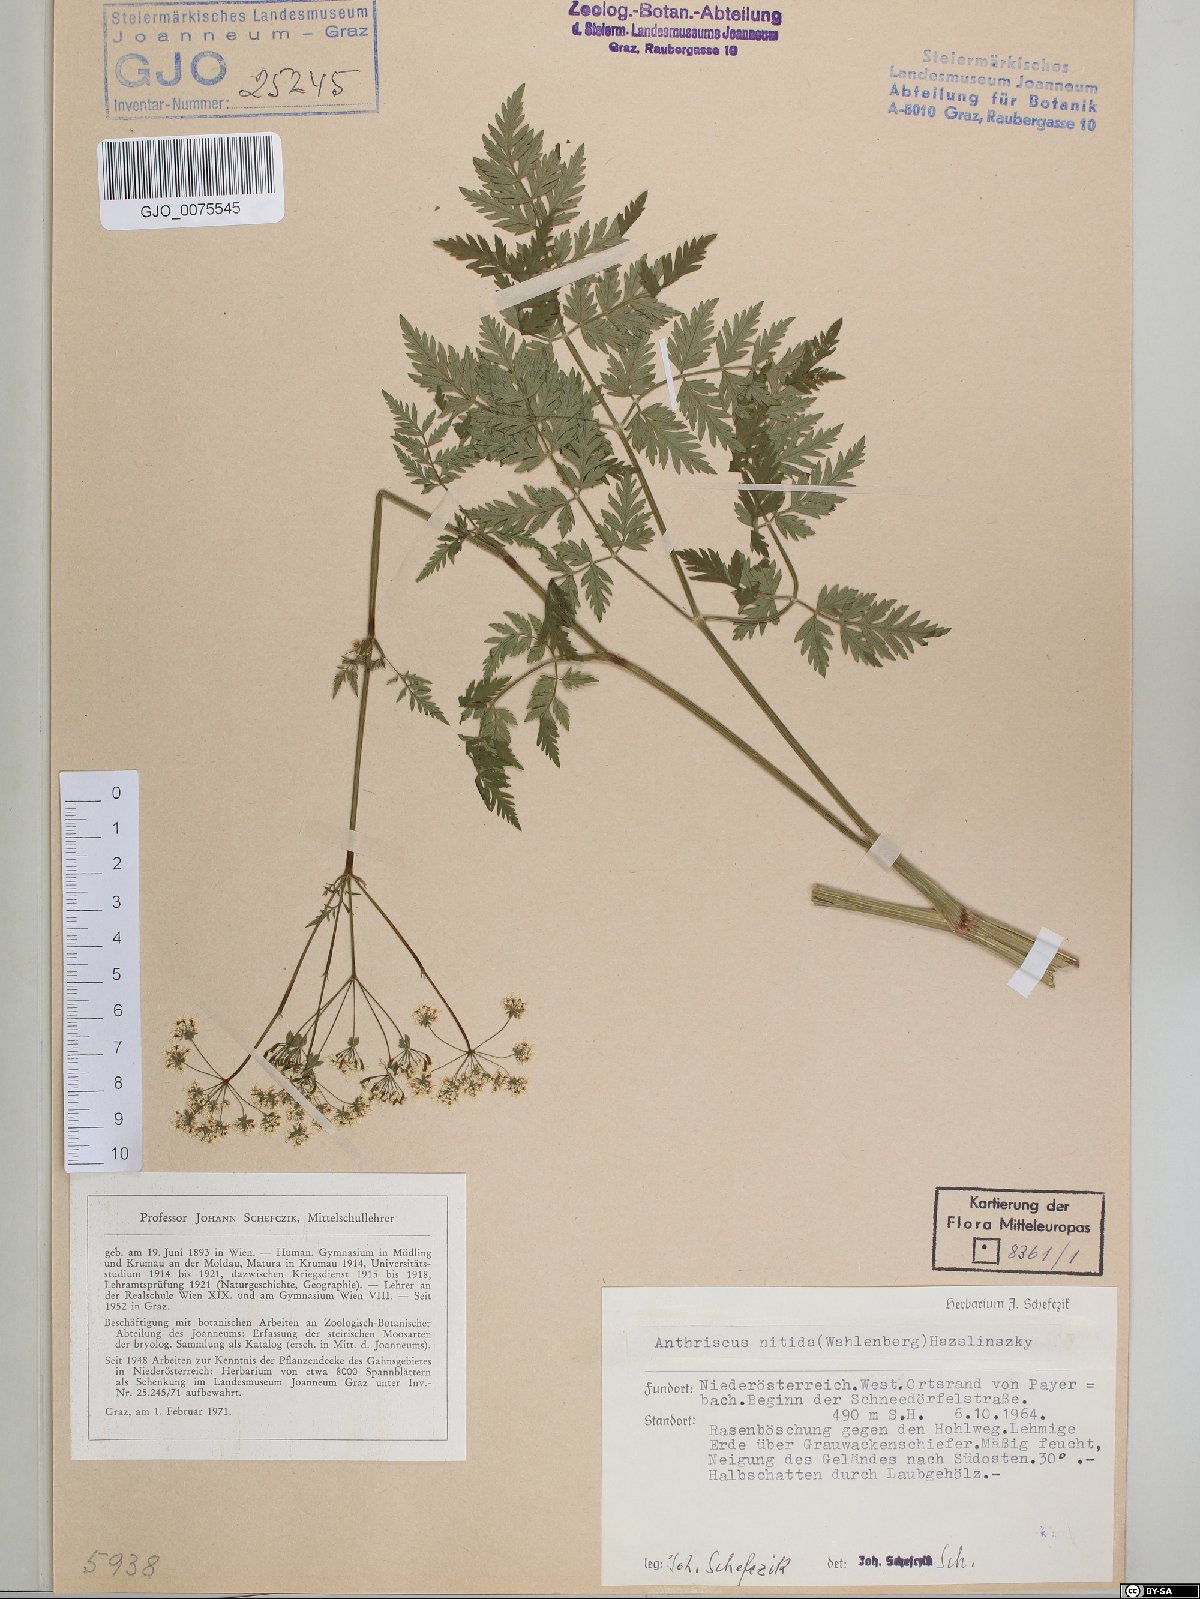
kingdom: Plantae
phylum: Tracheophyta
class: Magnoliopsida
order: Apiales
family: Apiaceae
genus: Anthriscus
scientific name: Anthriscus nitida
